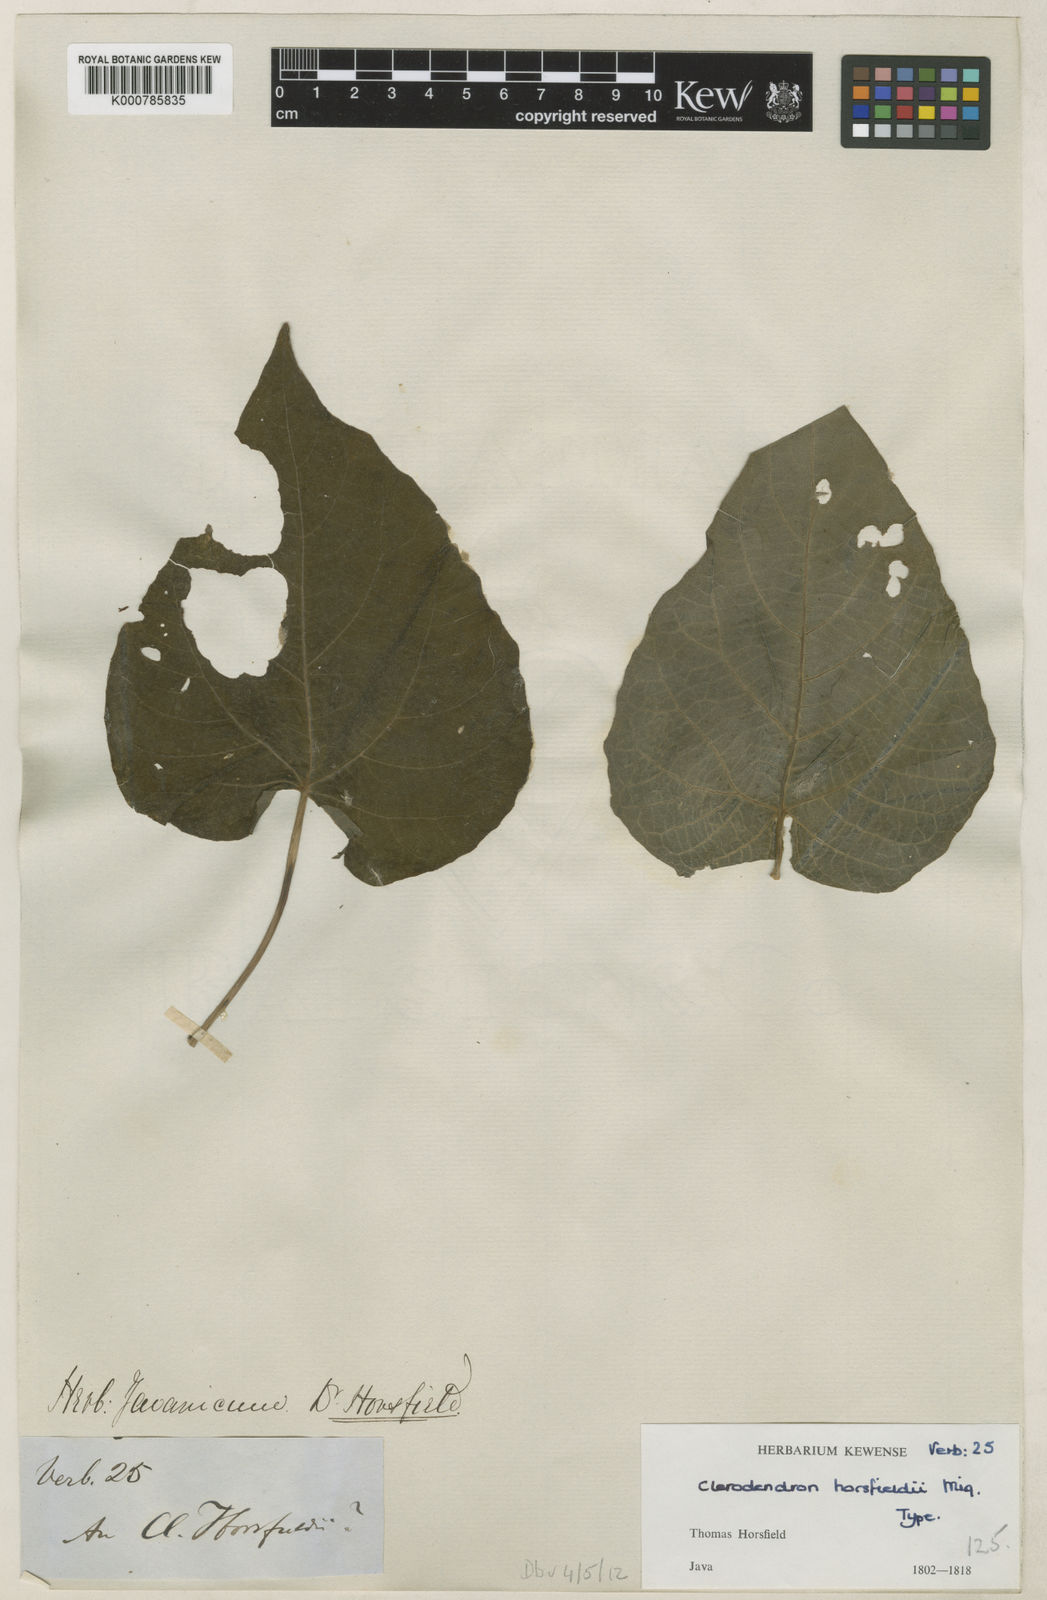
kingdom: Plantae
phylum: Tracheophyta
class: Magnoliopsida
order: Lamiales
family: Lamiaceae
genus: Clerodendrum
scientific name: Clerodendrum speciosissimum
